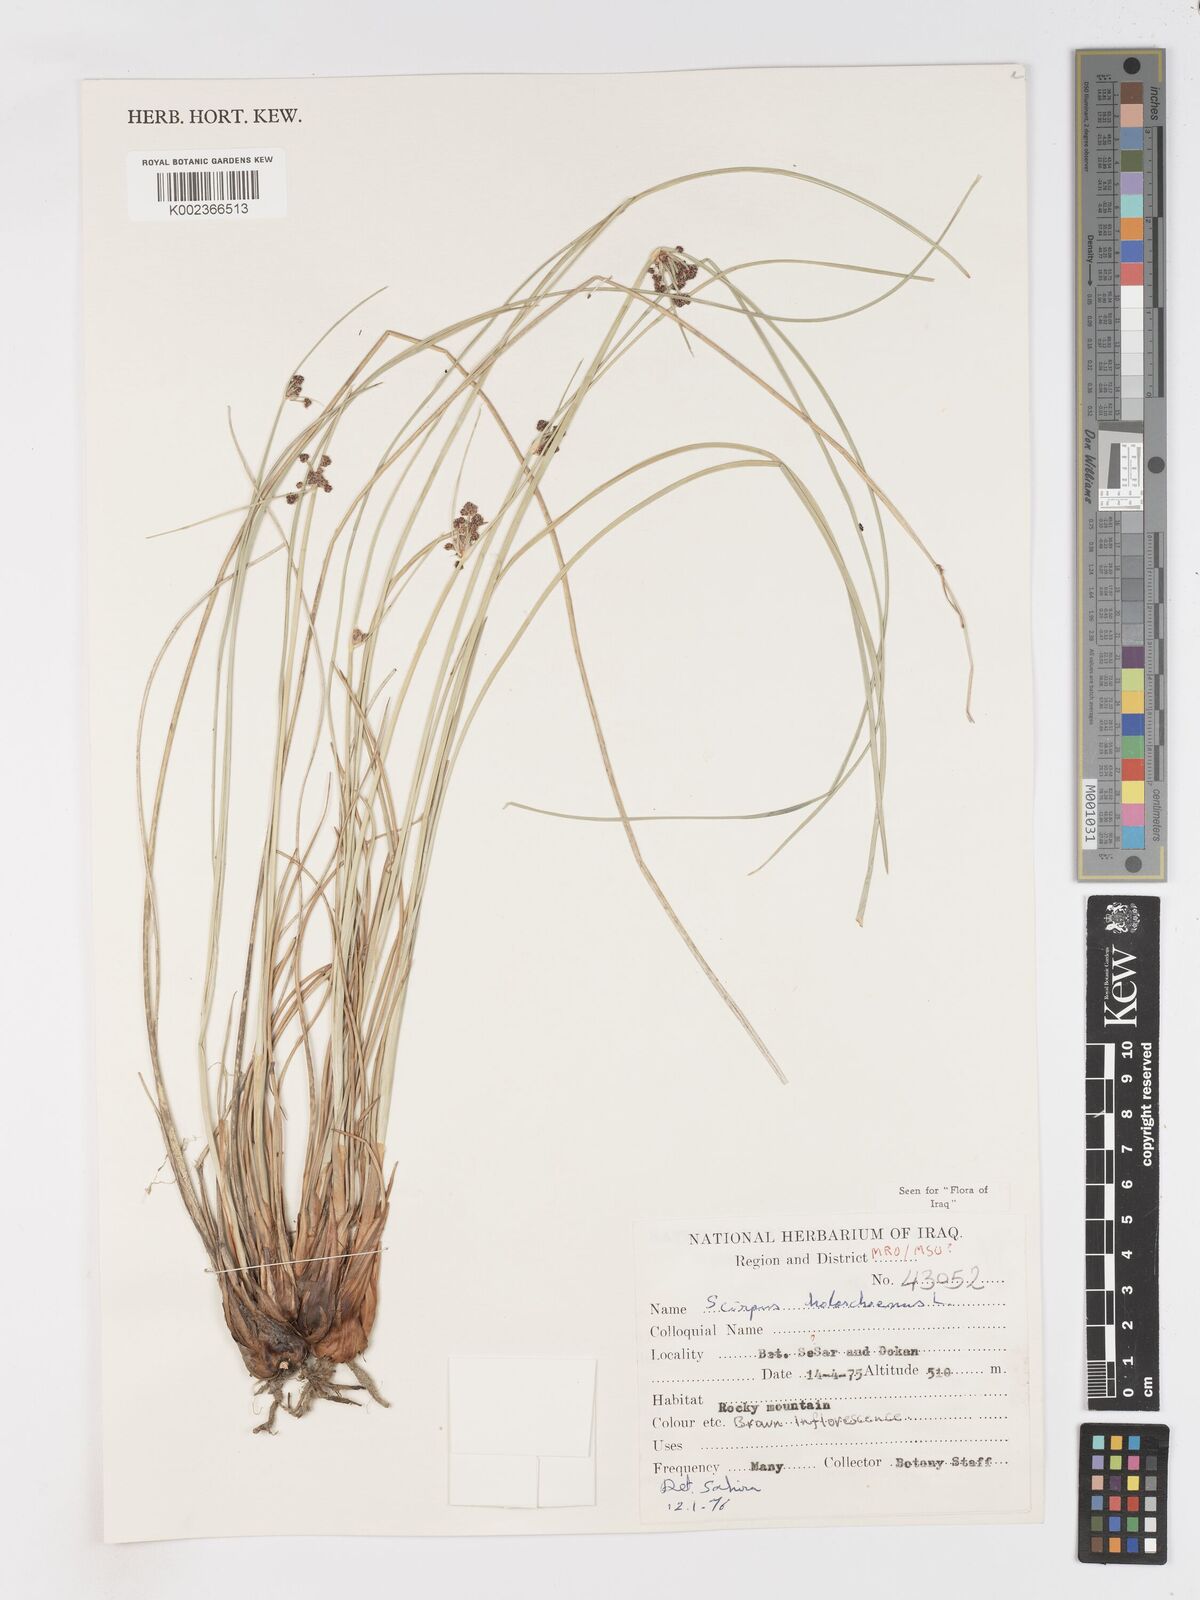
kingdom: Plantae
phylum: Tracheophyta
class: Liliopsida
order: Poales
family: Cyperaceae
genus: Scirpoides
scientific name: Scirpoides holoschoenus
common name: Round-headed club-rush
